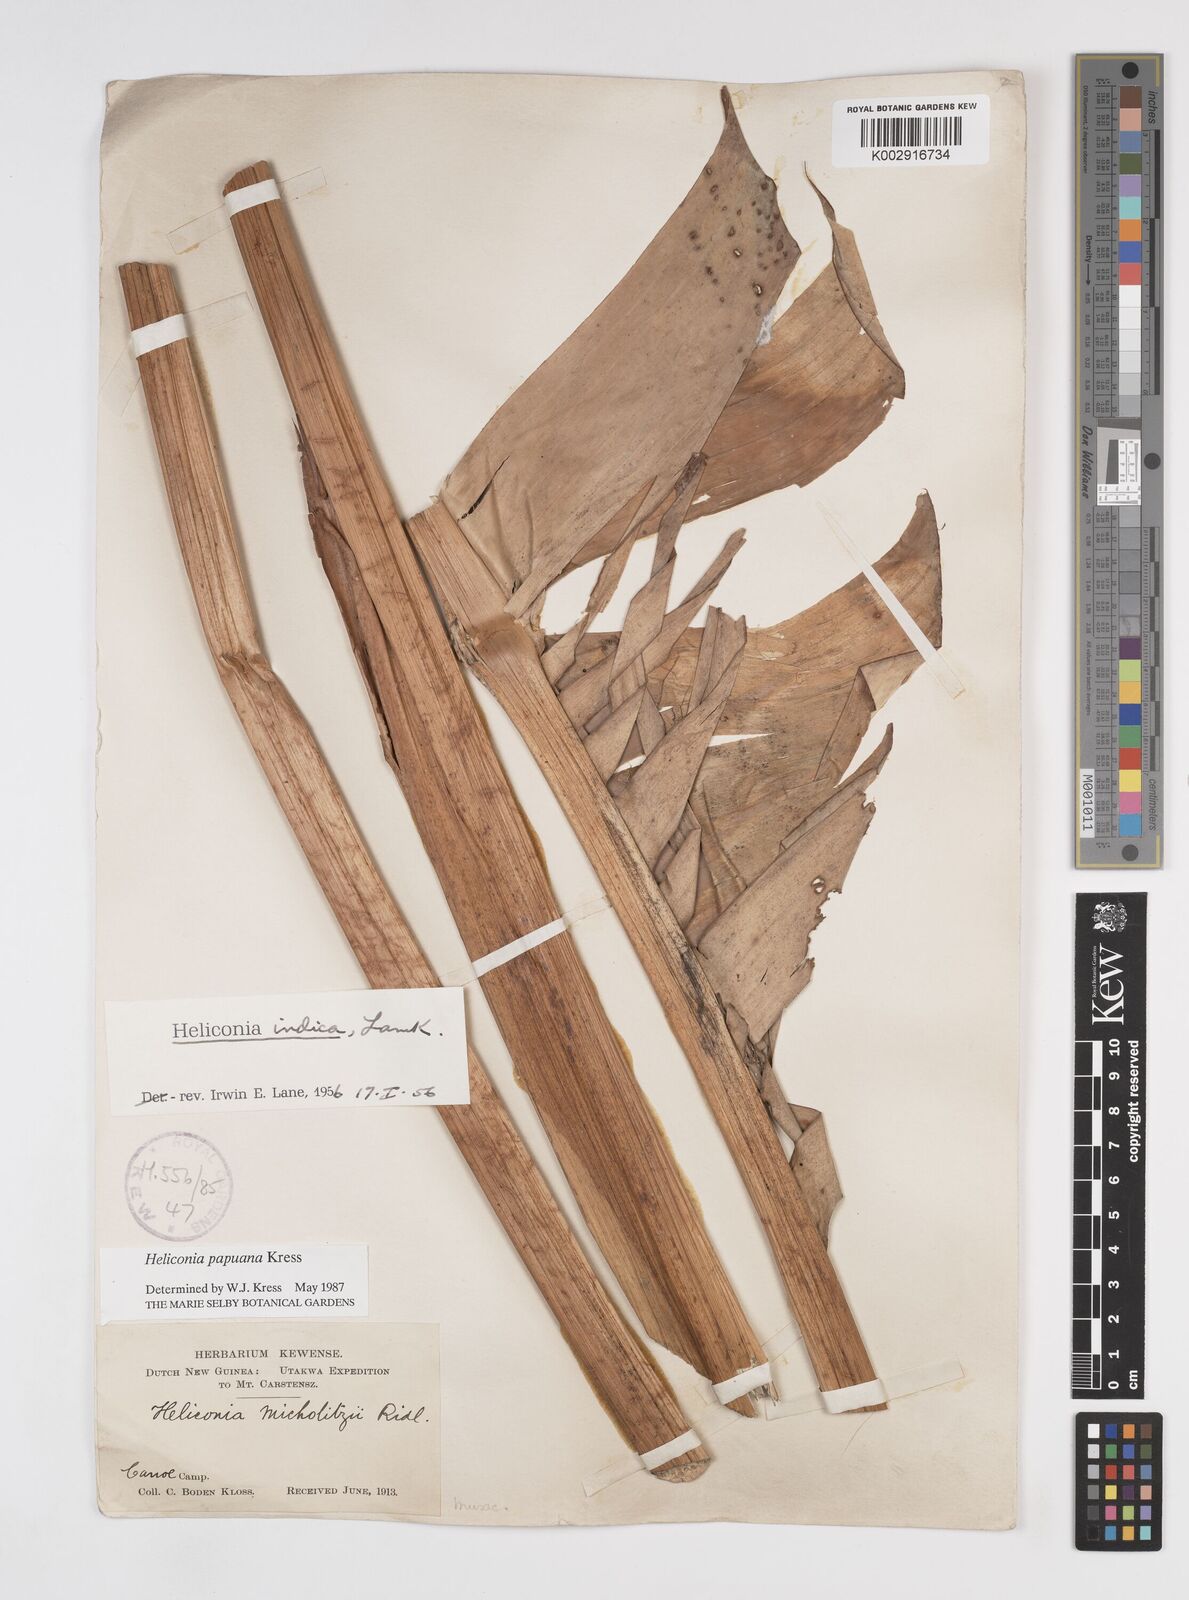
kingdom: Plantae
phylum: Tracheophyta
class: Liliopsida
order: Zingiberales
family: Heliconiaceae
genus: Heliconia
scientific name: Heliconia papuana
